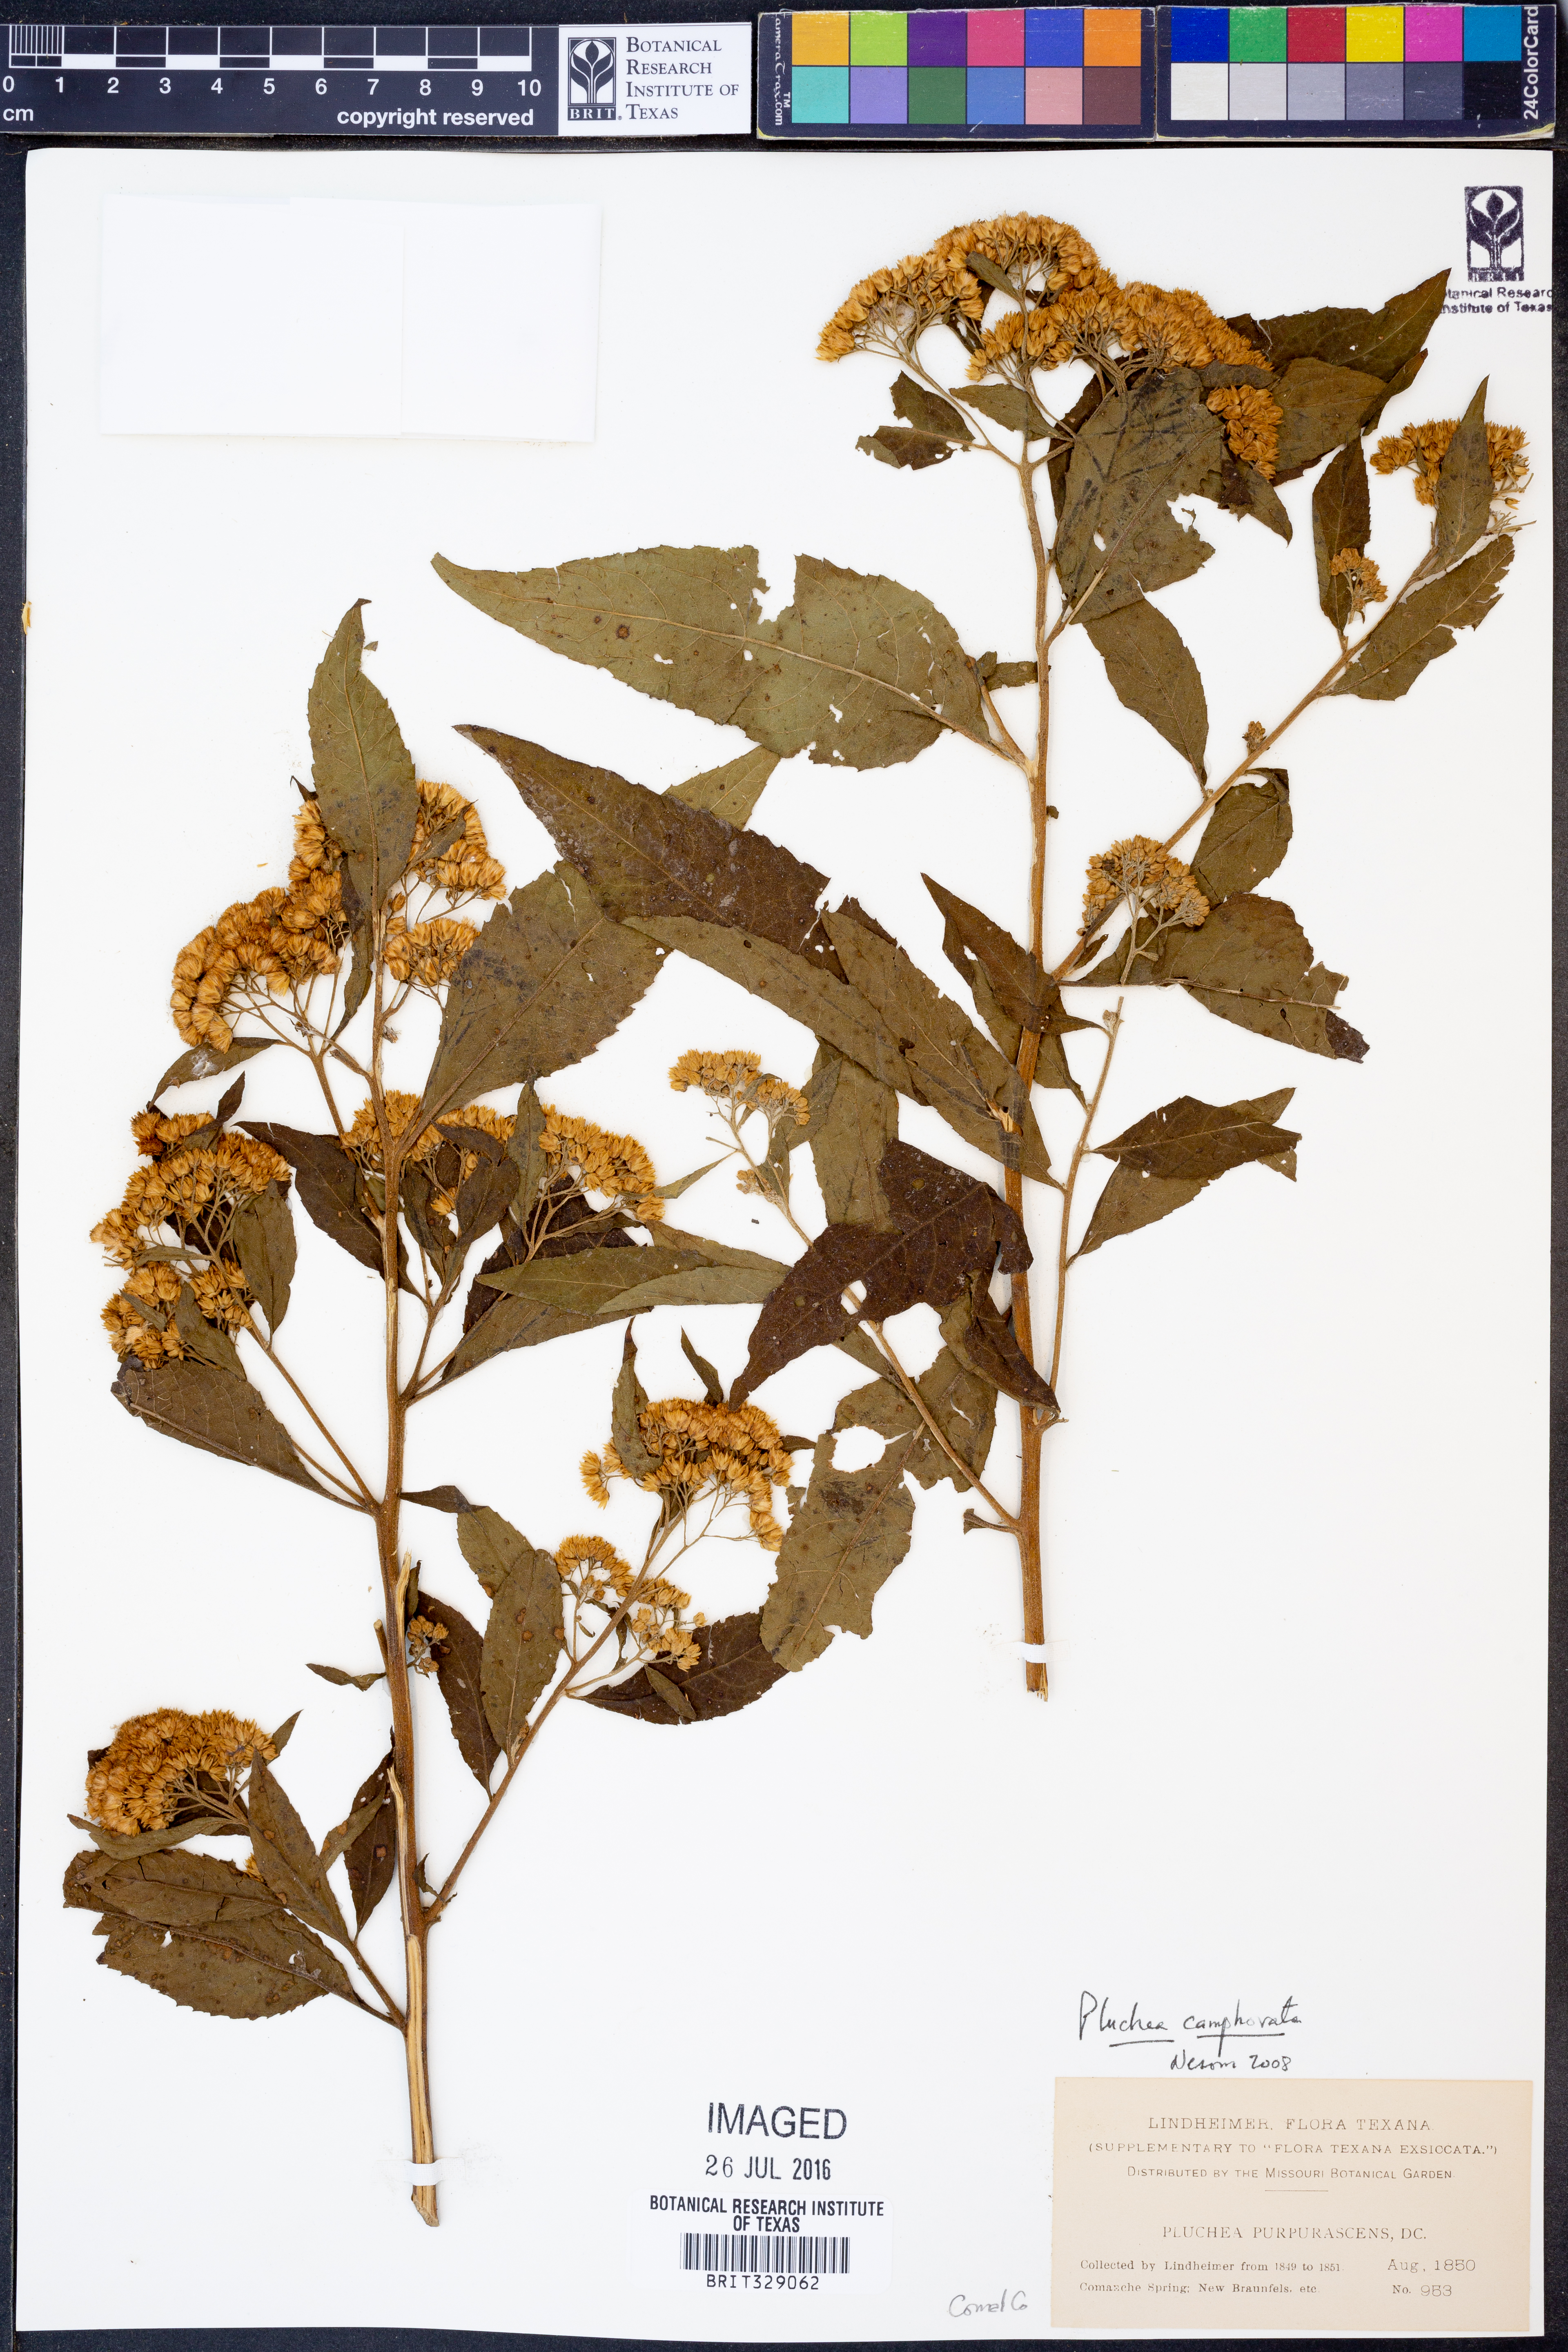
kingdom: Plantae
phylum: Tracheophyta
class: Magnoliopsida
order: Asterales
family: Asteraceae
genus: Pluchea
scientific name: Pluchea camphorata
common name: Camphor pluchea
